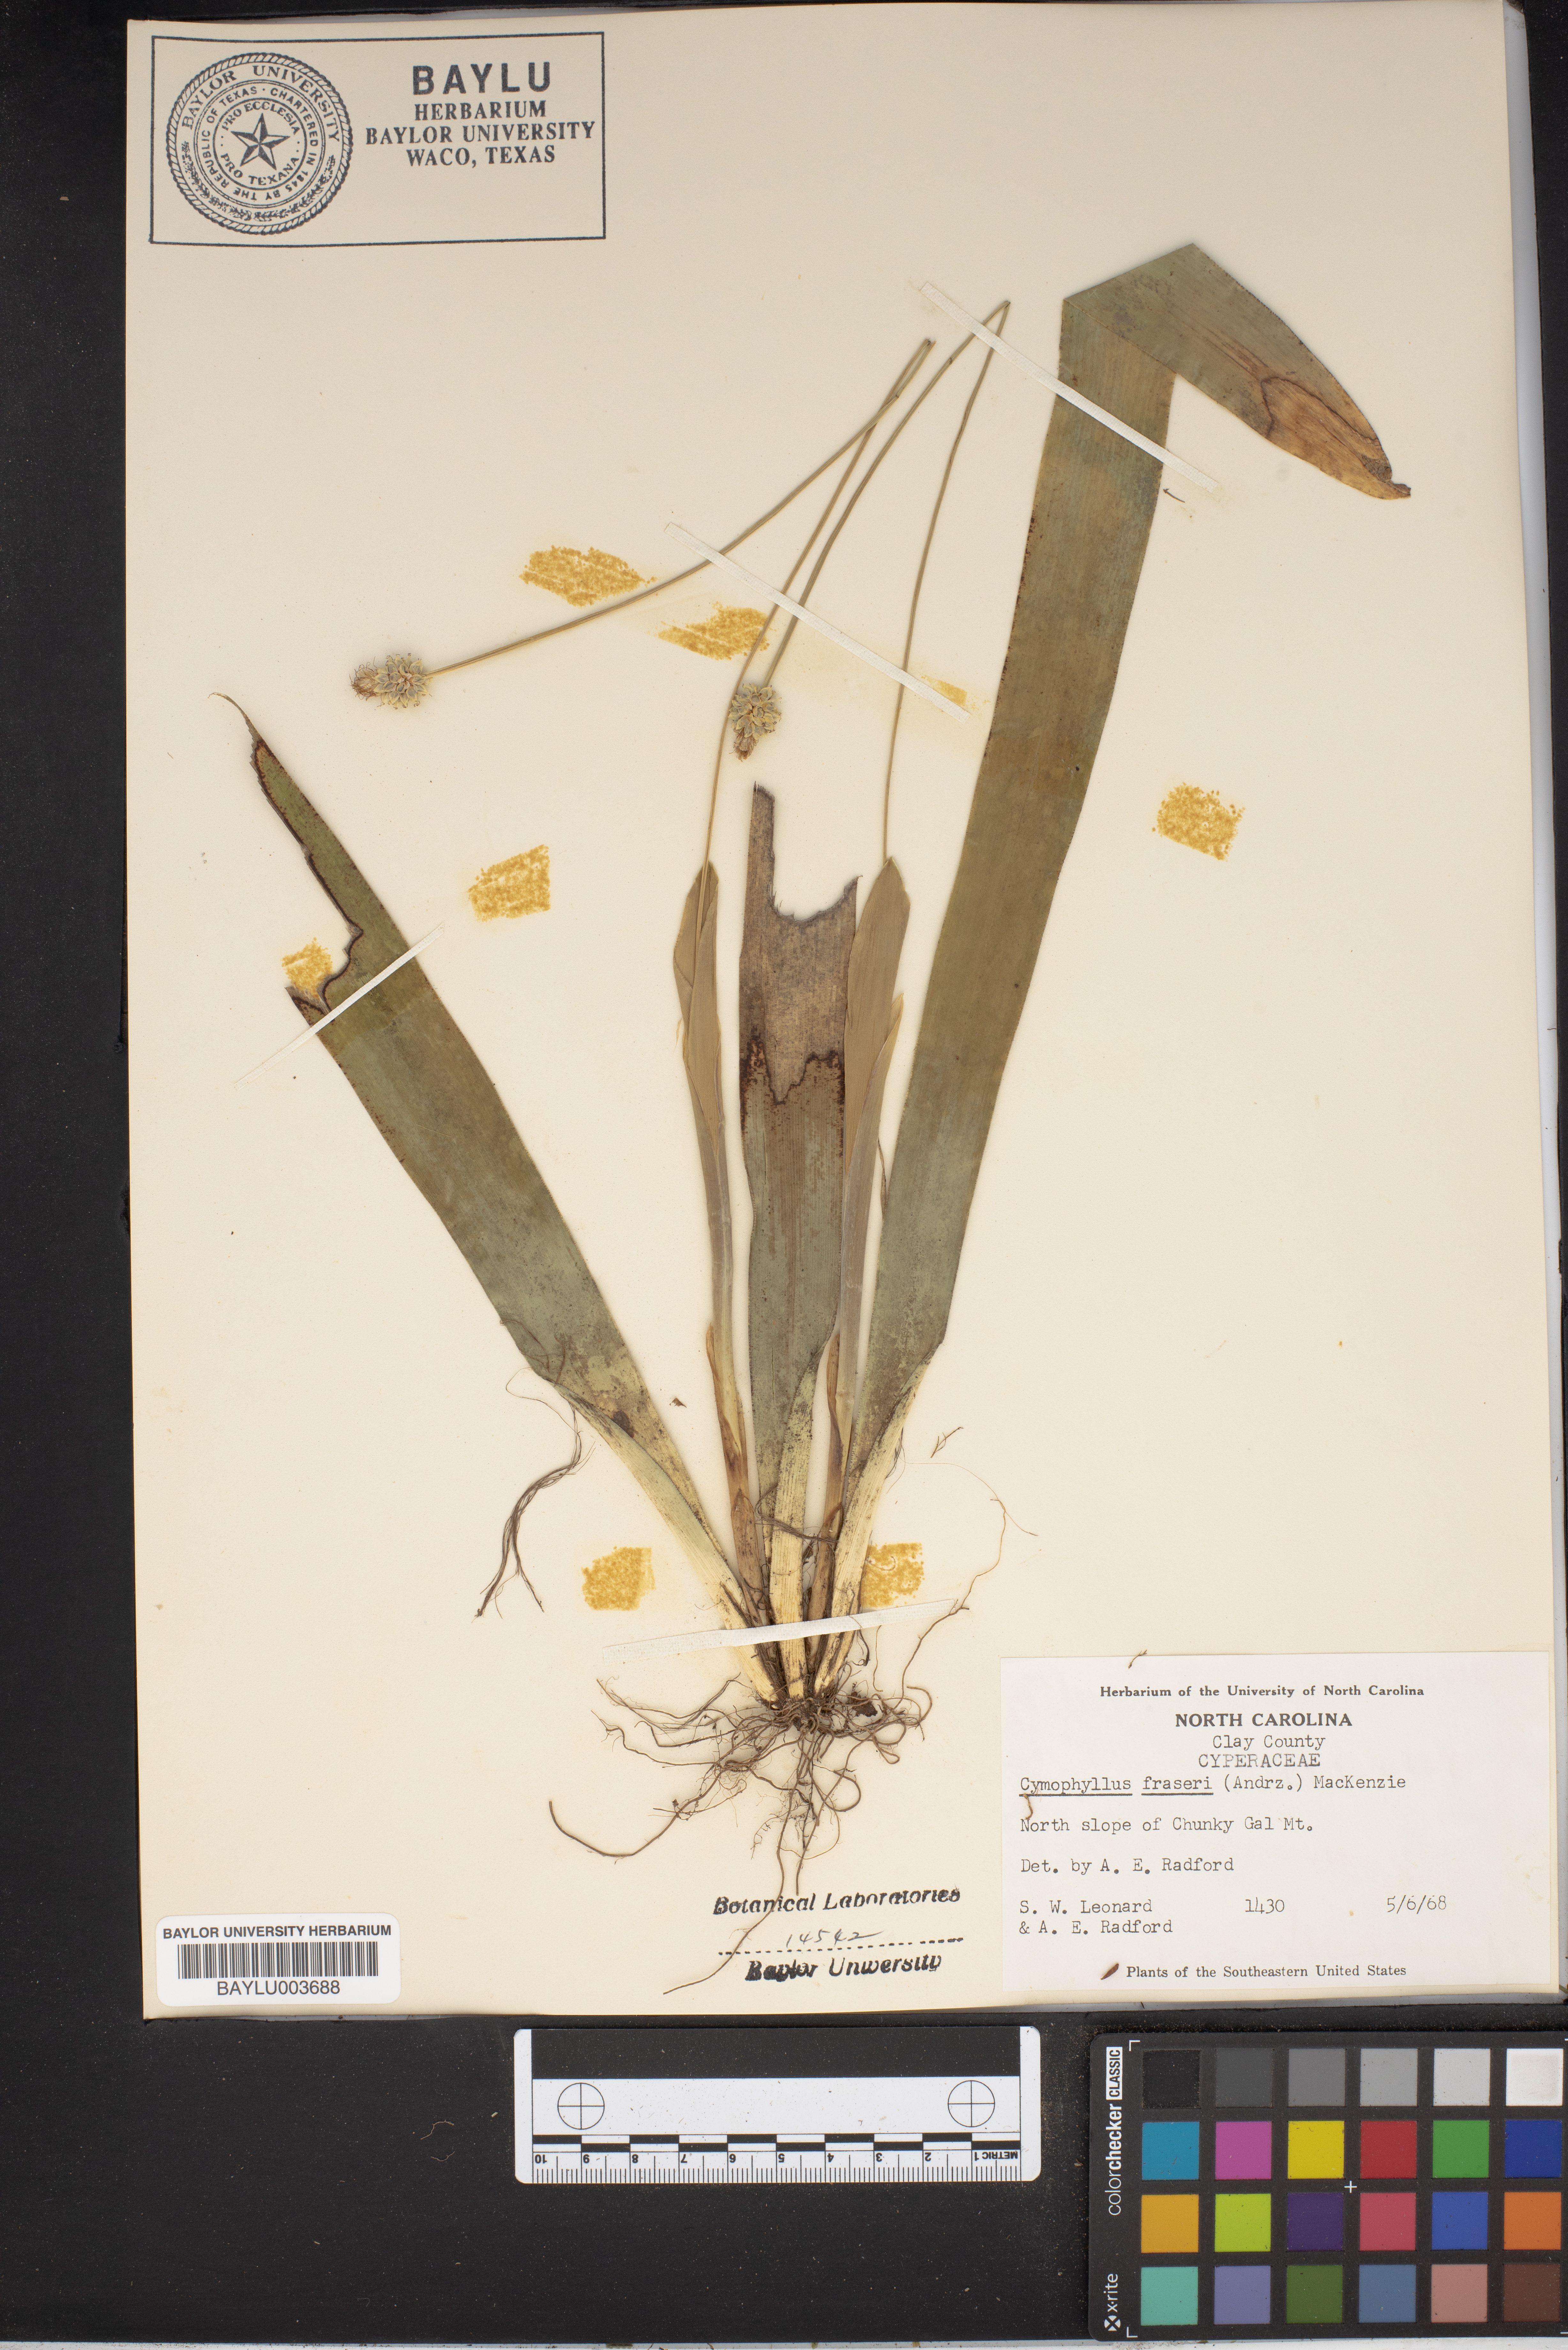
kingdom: Plantae
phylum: Tracheophyta
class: Liliopsida
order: Poales
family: Cyperaceae
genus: Carex
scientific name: Carex fraseriana
